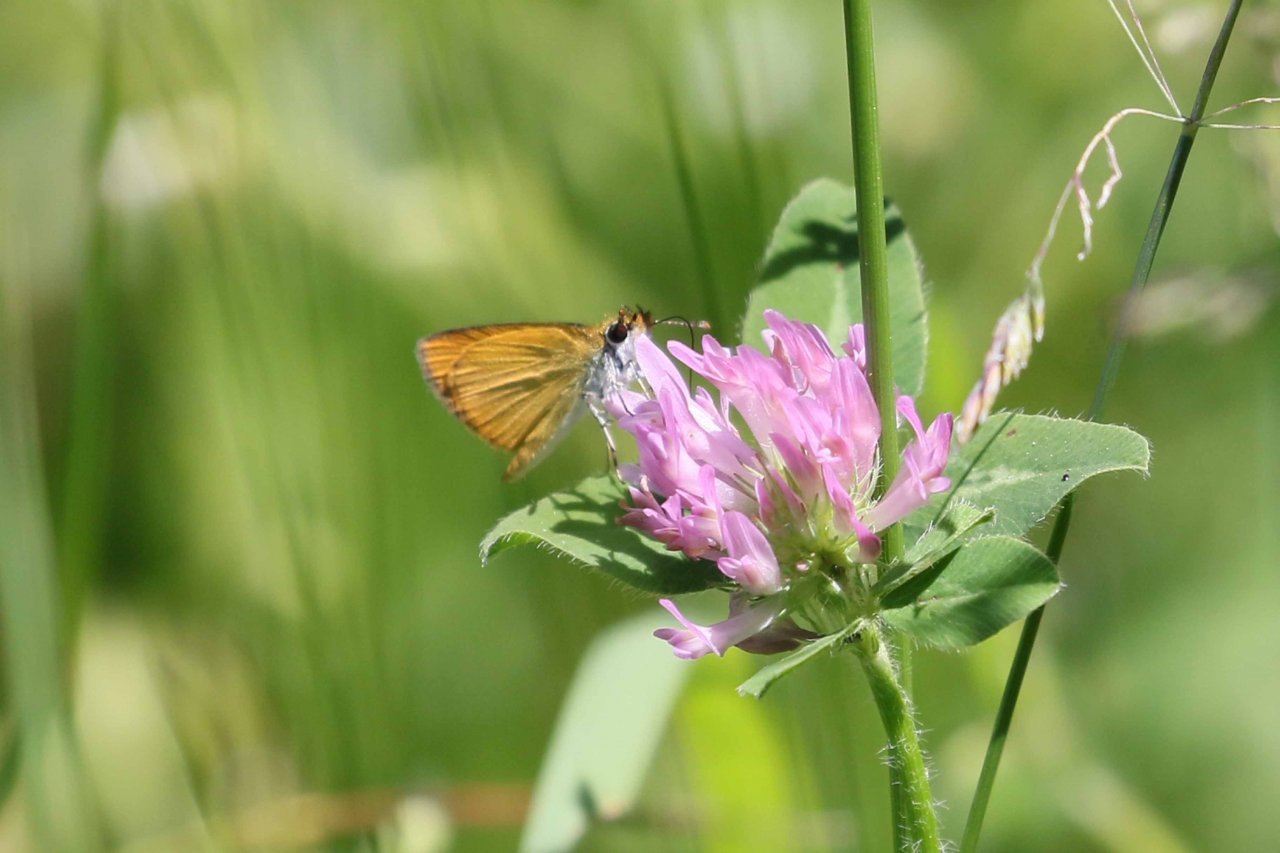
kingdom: Animalia
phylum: Arthropoda
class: Insecta
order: Lepidoptera
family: Hesperiidae
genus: Ancyloxypha
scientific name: Ancyloxypha numitor
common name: Least Skipper
